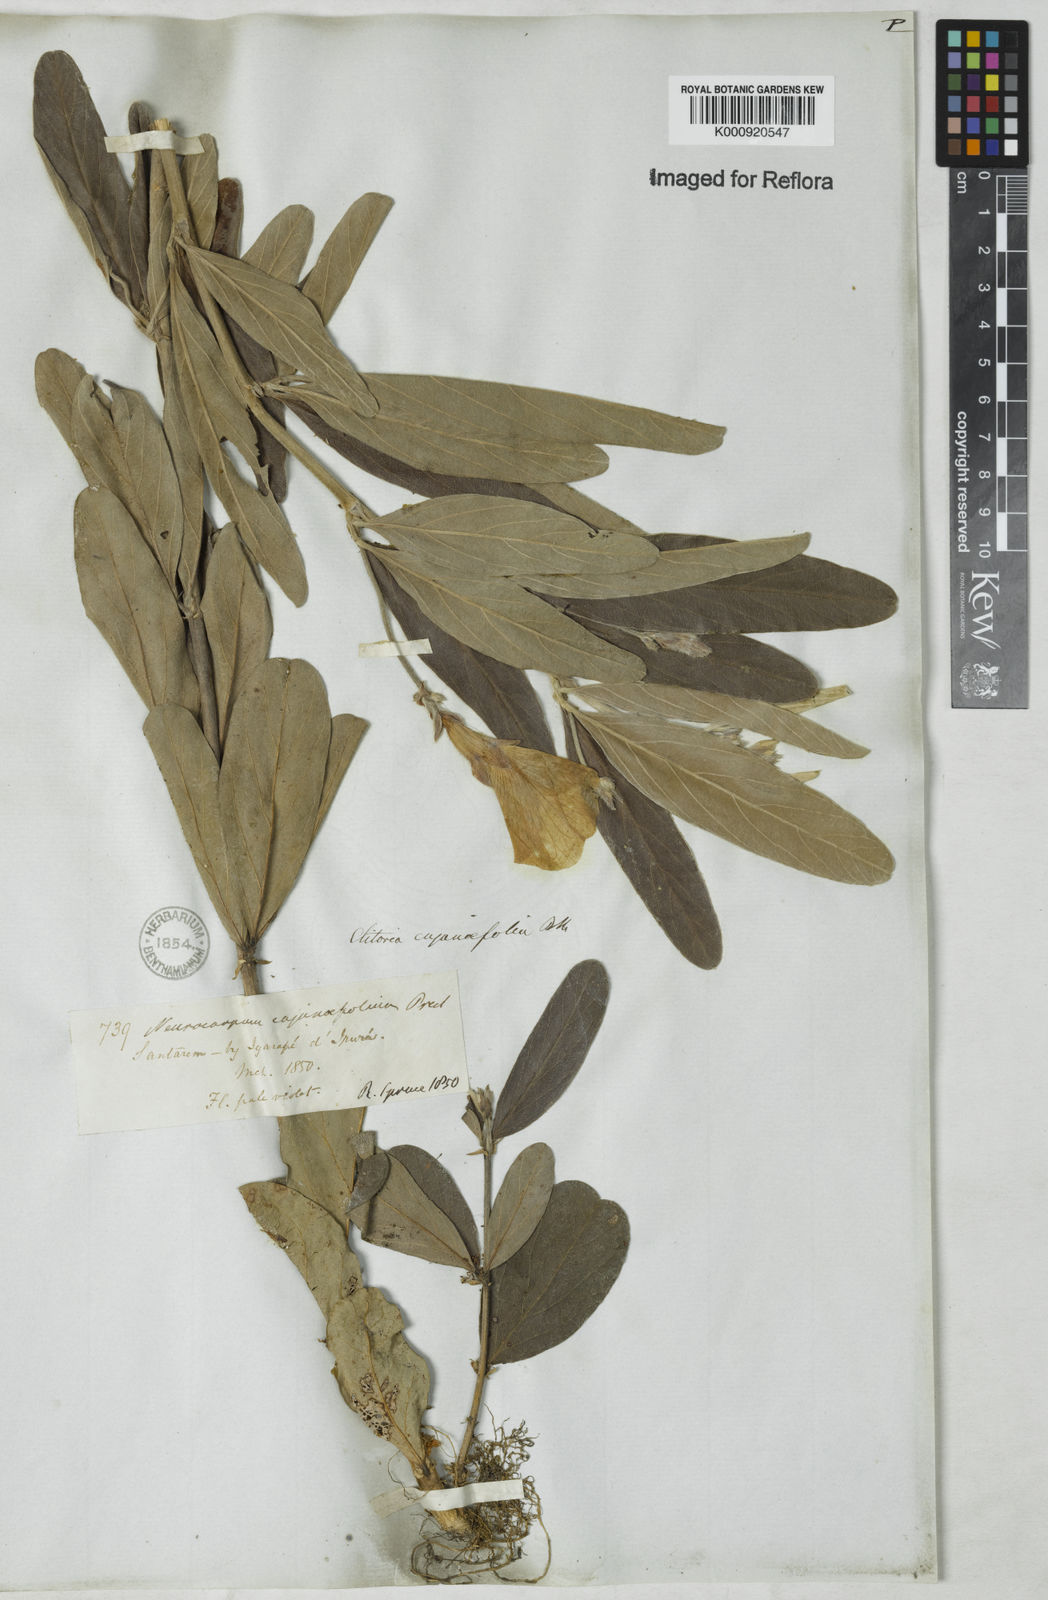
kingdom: Plantae
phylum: Tracheophyta
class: Magnoliopsida
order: Fabales
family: Fabaceae
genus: Clitoria
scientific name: Clitoria laurifolia
